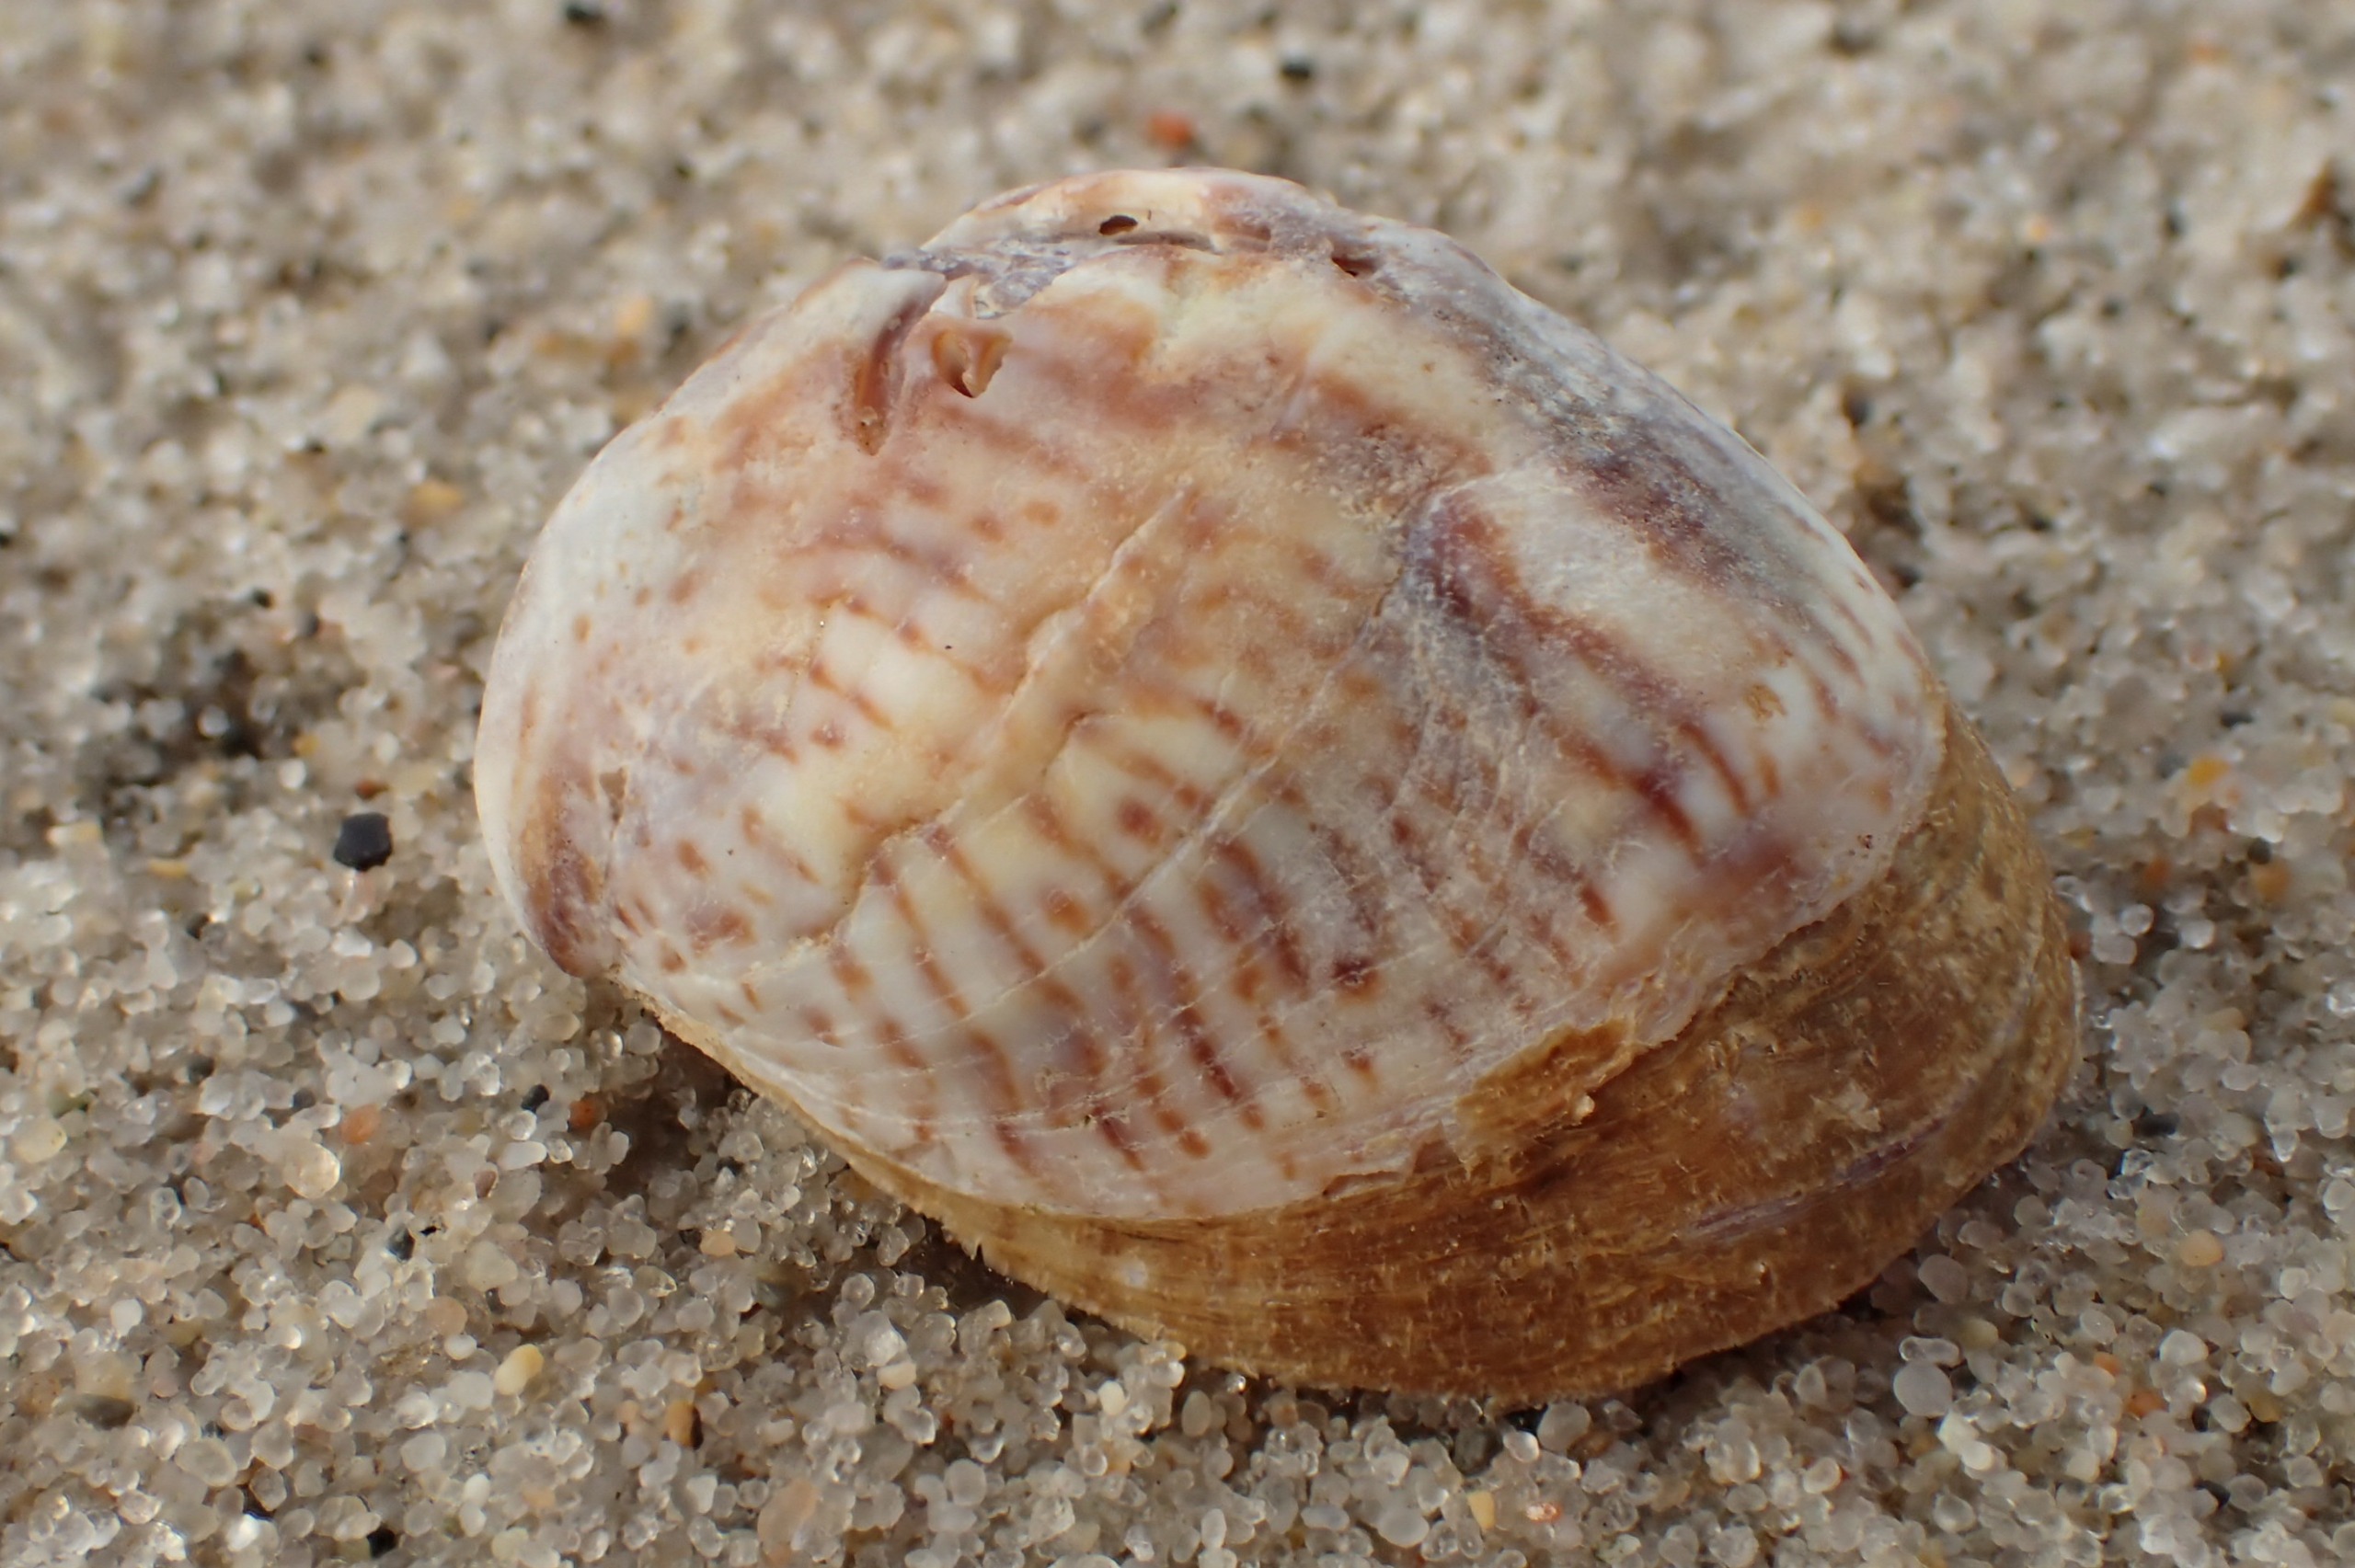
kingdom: Animalia
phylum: Mollusca
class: Gastropoda
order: Littorinimorpha
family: Calyptraeidae
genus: Crepidula
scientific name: Crepidula fornicata
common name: Tøffelsnegl
